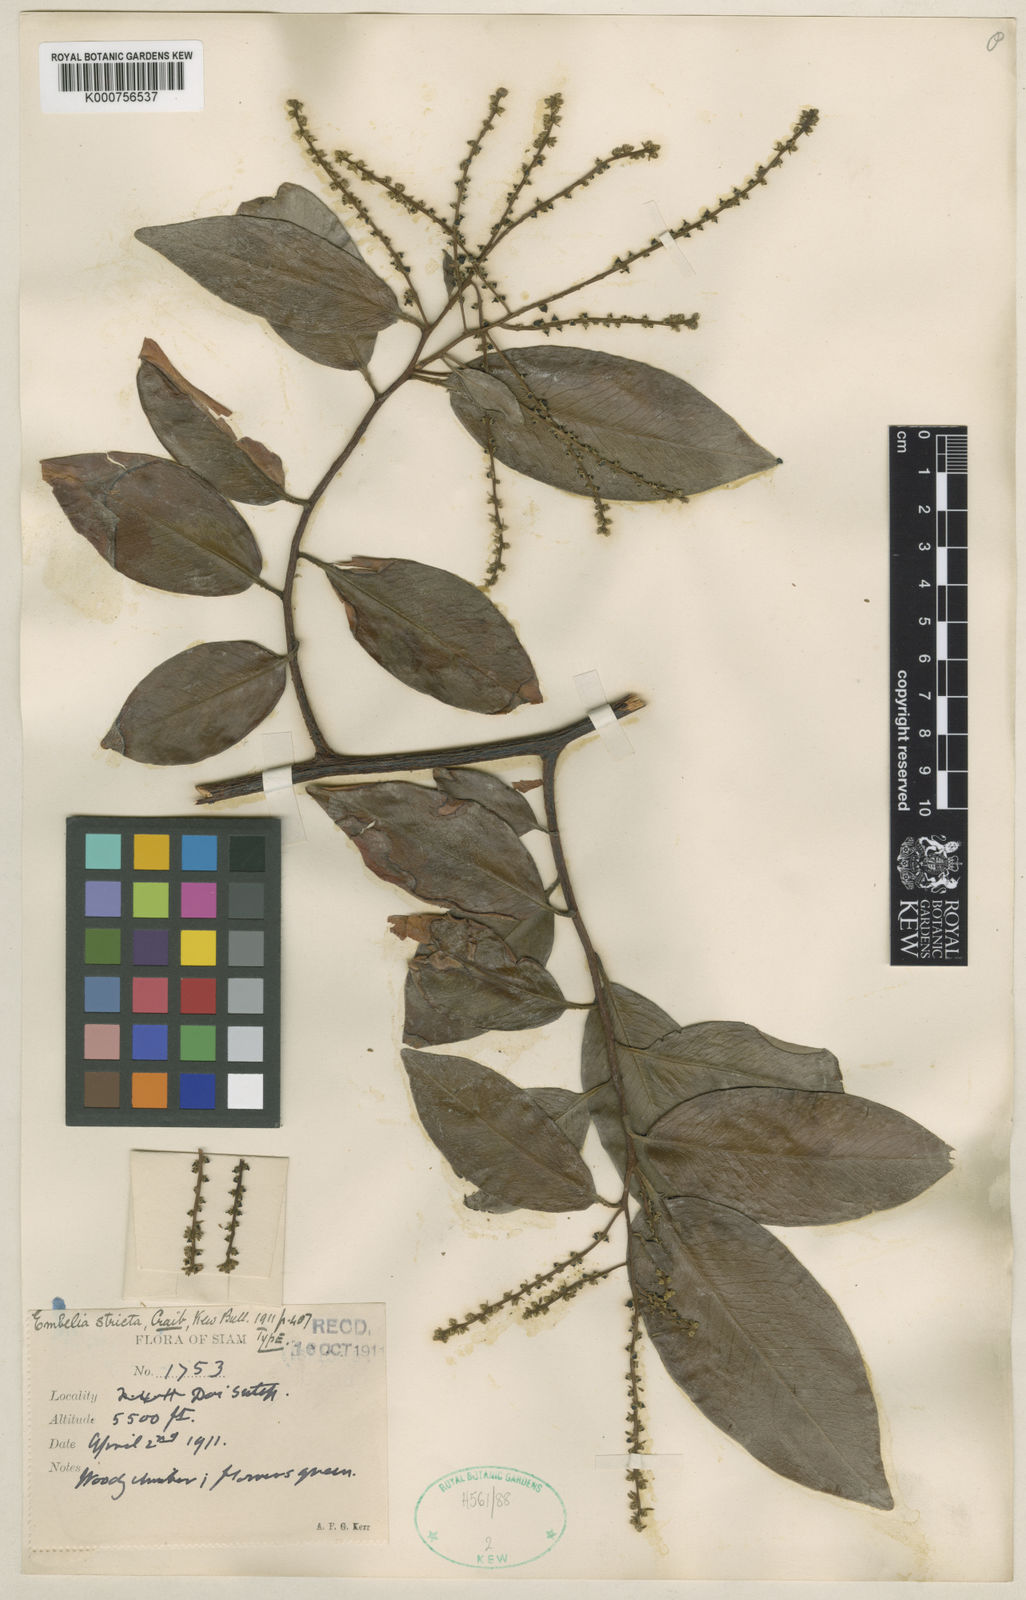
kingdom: Plantae
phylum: Tracheophyta
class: Magnoliopsida
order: Ericales
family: Primulaceae
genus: Embelia
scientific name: Embelia sessiliflora
